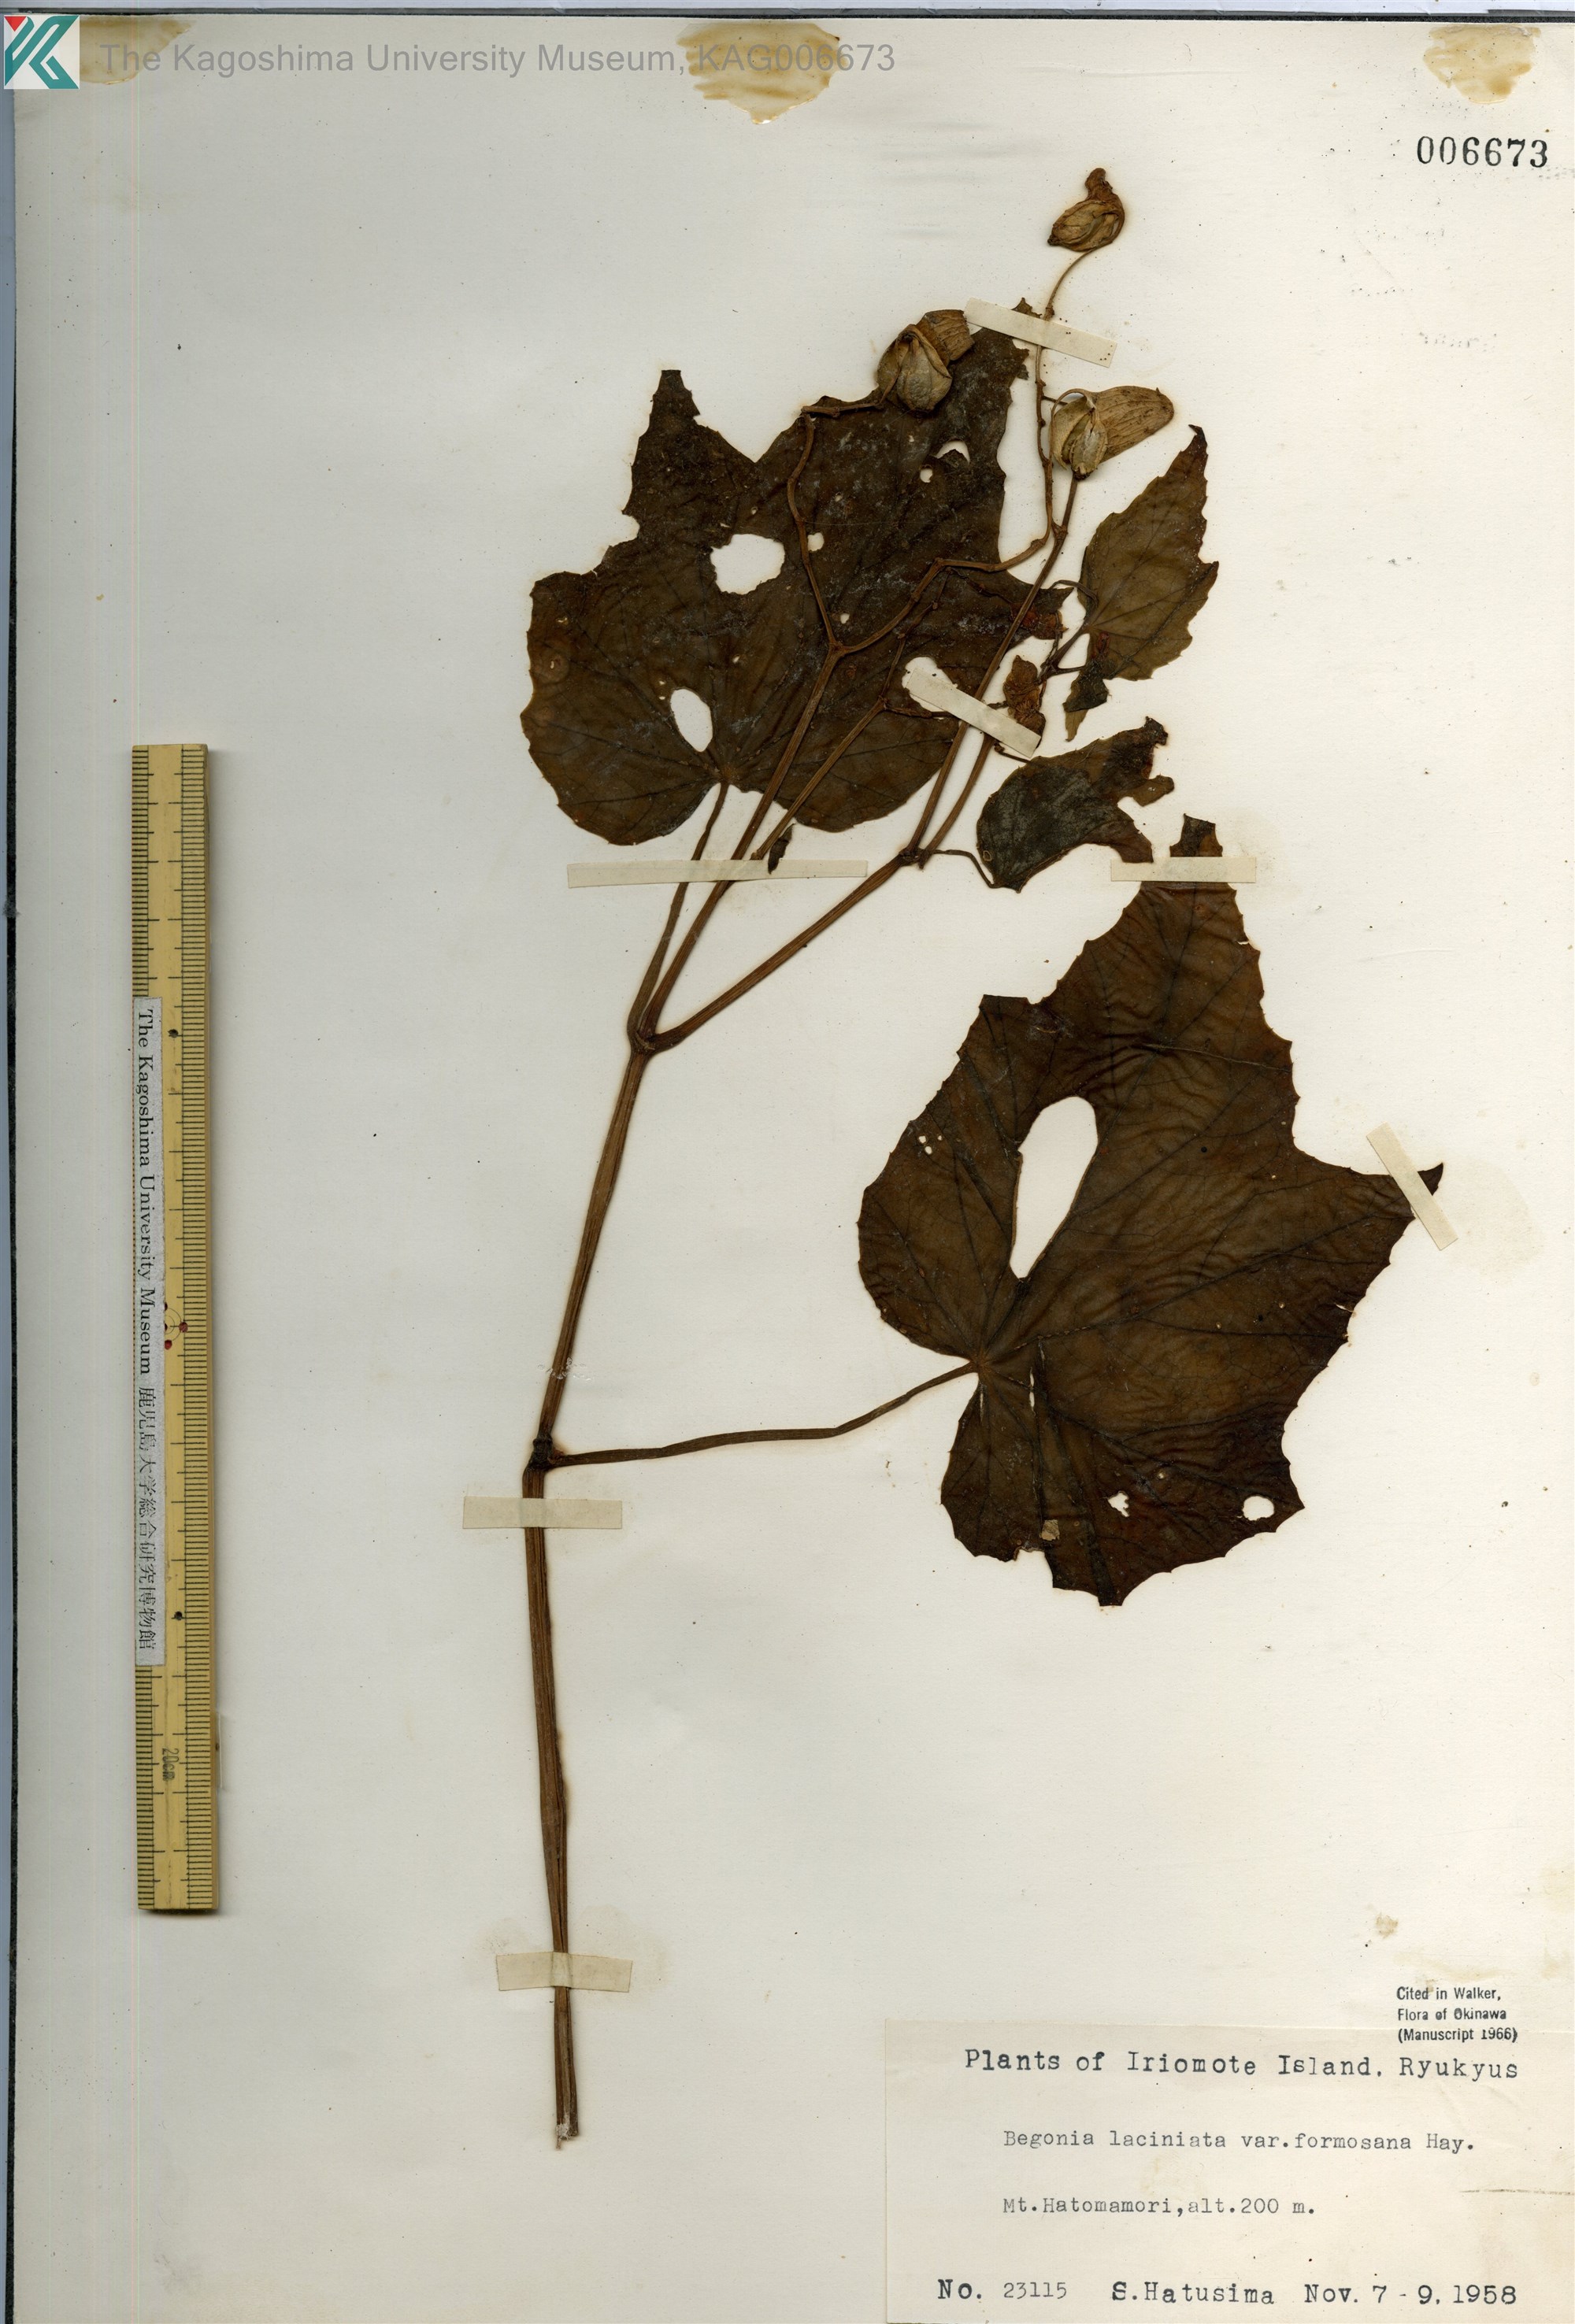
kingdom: Plantae
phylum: Tracheophyta
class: Magnoliopsida
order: Cucurbitales
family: Begoniaceae
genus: Begonia
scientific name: Begonia palmata
